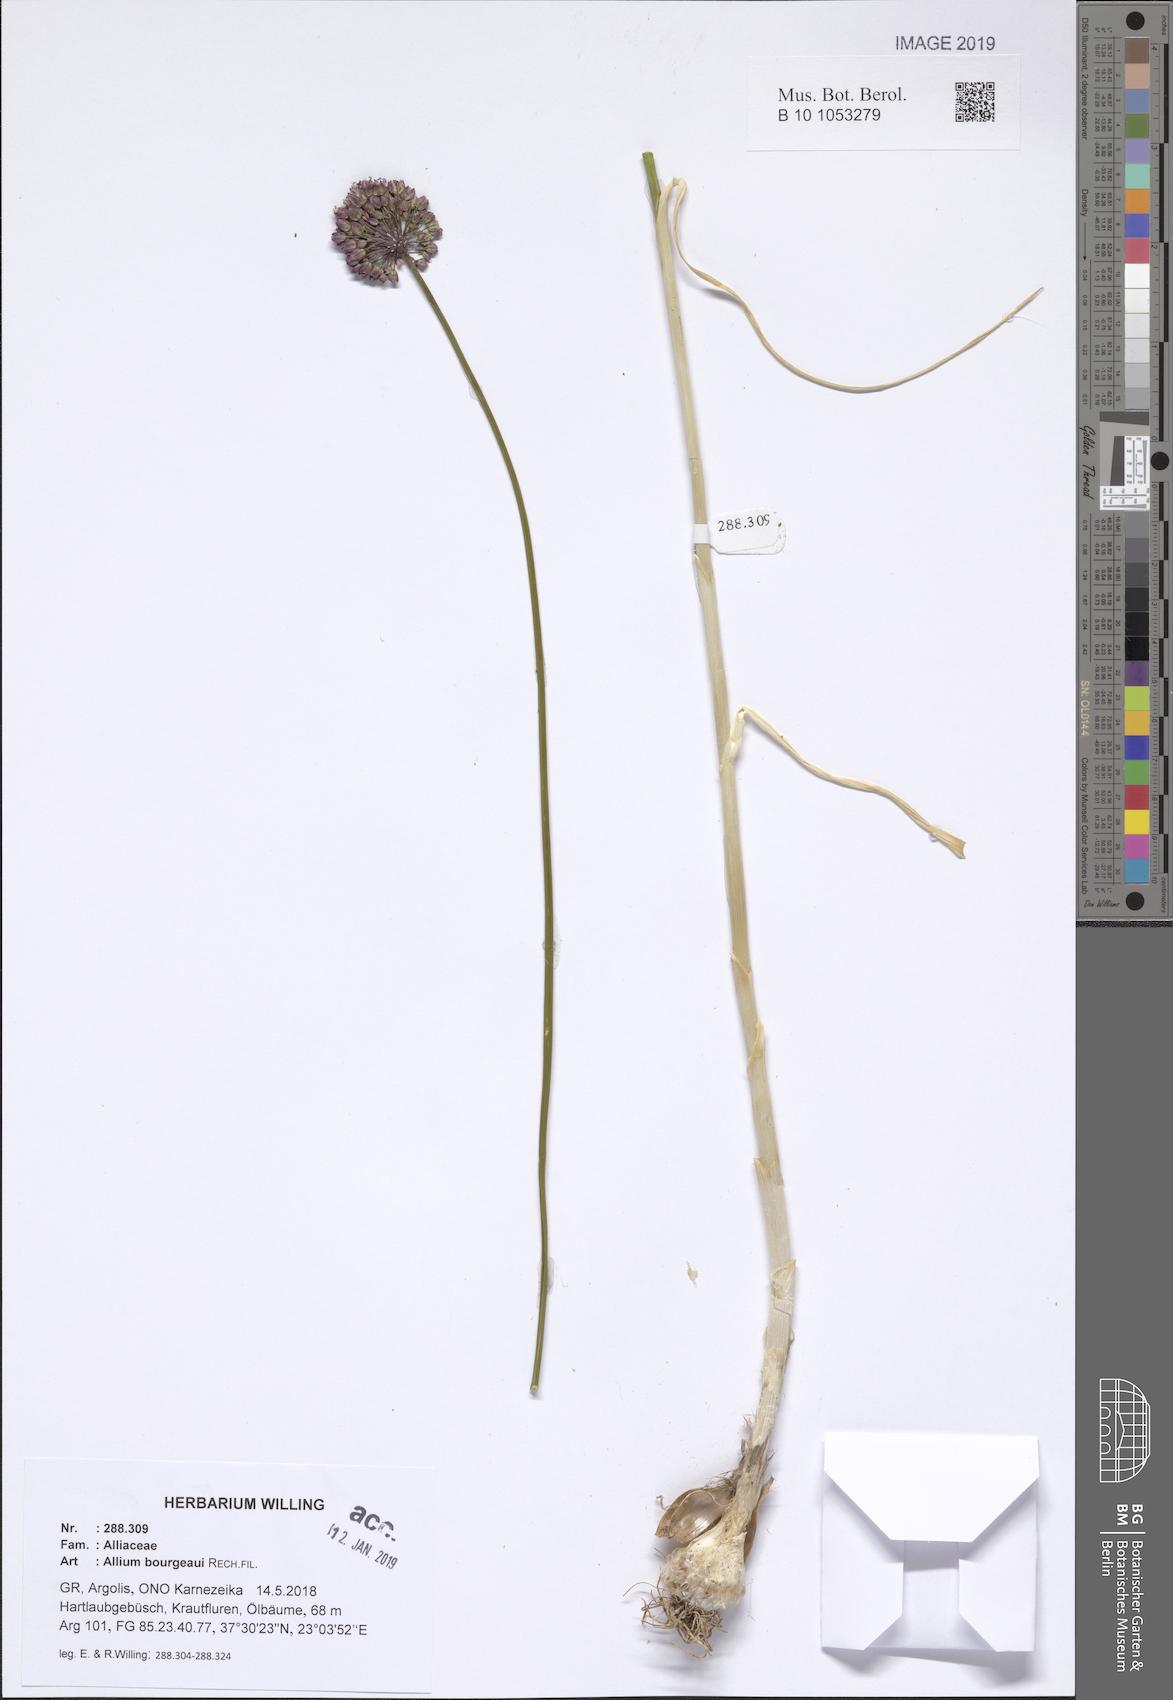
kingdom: Plantae
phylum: Tracheophyta
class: Liliopsida
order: Asparagales
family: Amaryllidaceae
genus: Allium
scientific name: Allium bourgeaui
